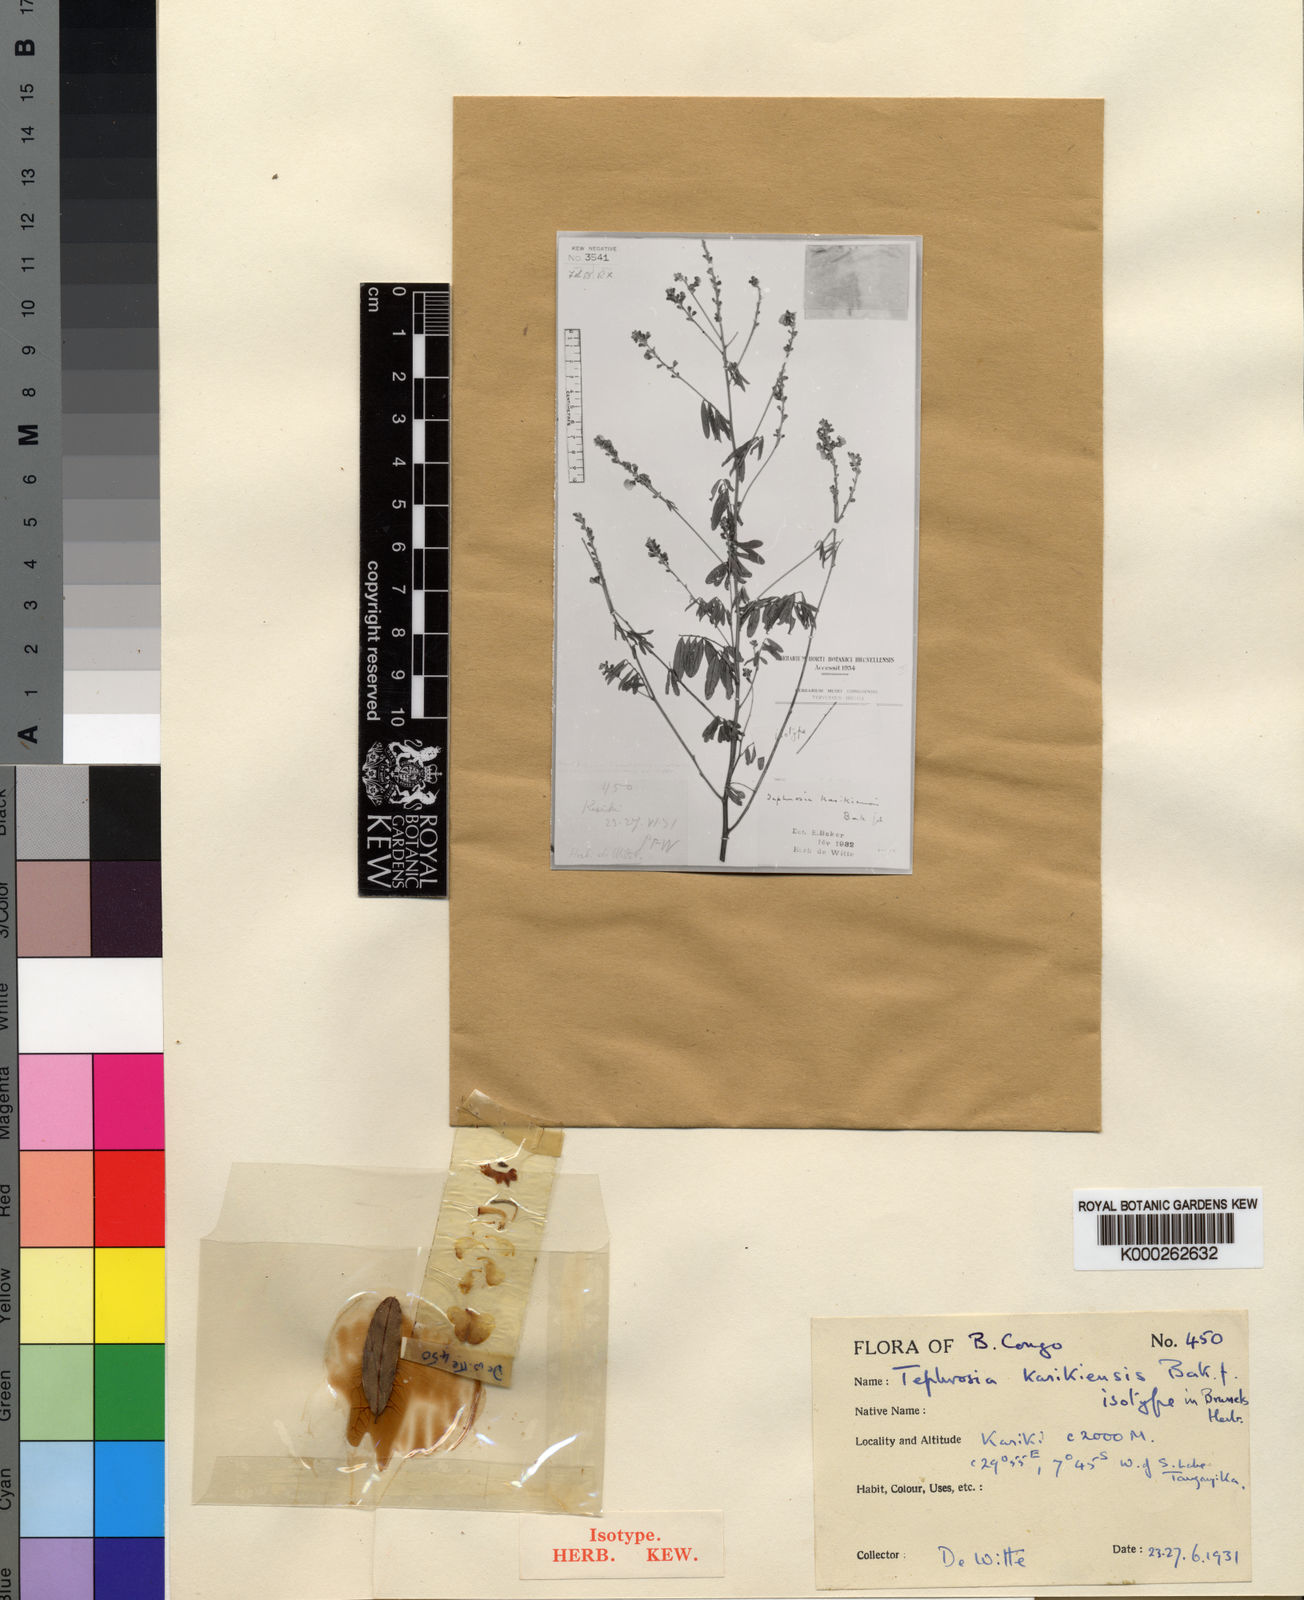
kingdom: Plantae
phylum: Tracheophyta
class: Magnoliopsida
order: Fabales
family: Fabaceae
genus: Tephrosia
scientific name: Tephrosia
